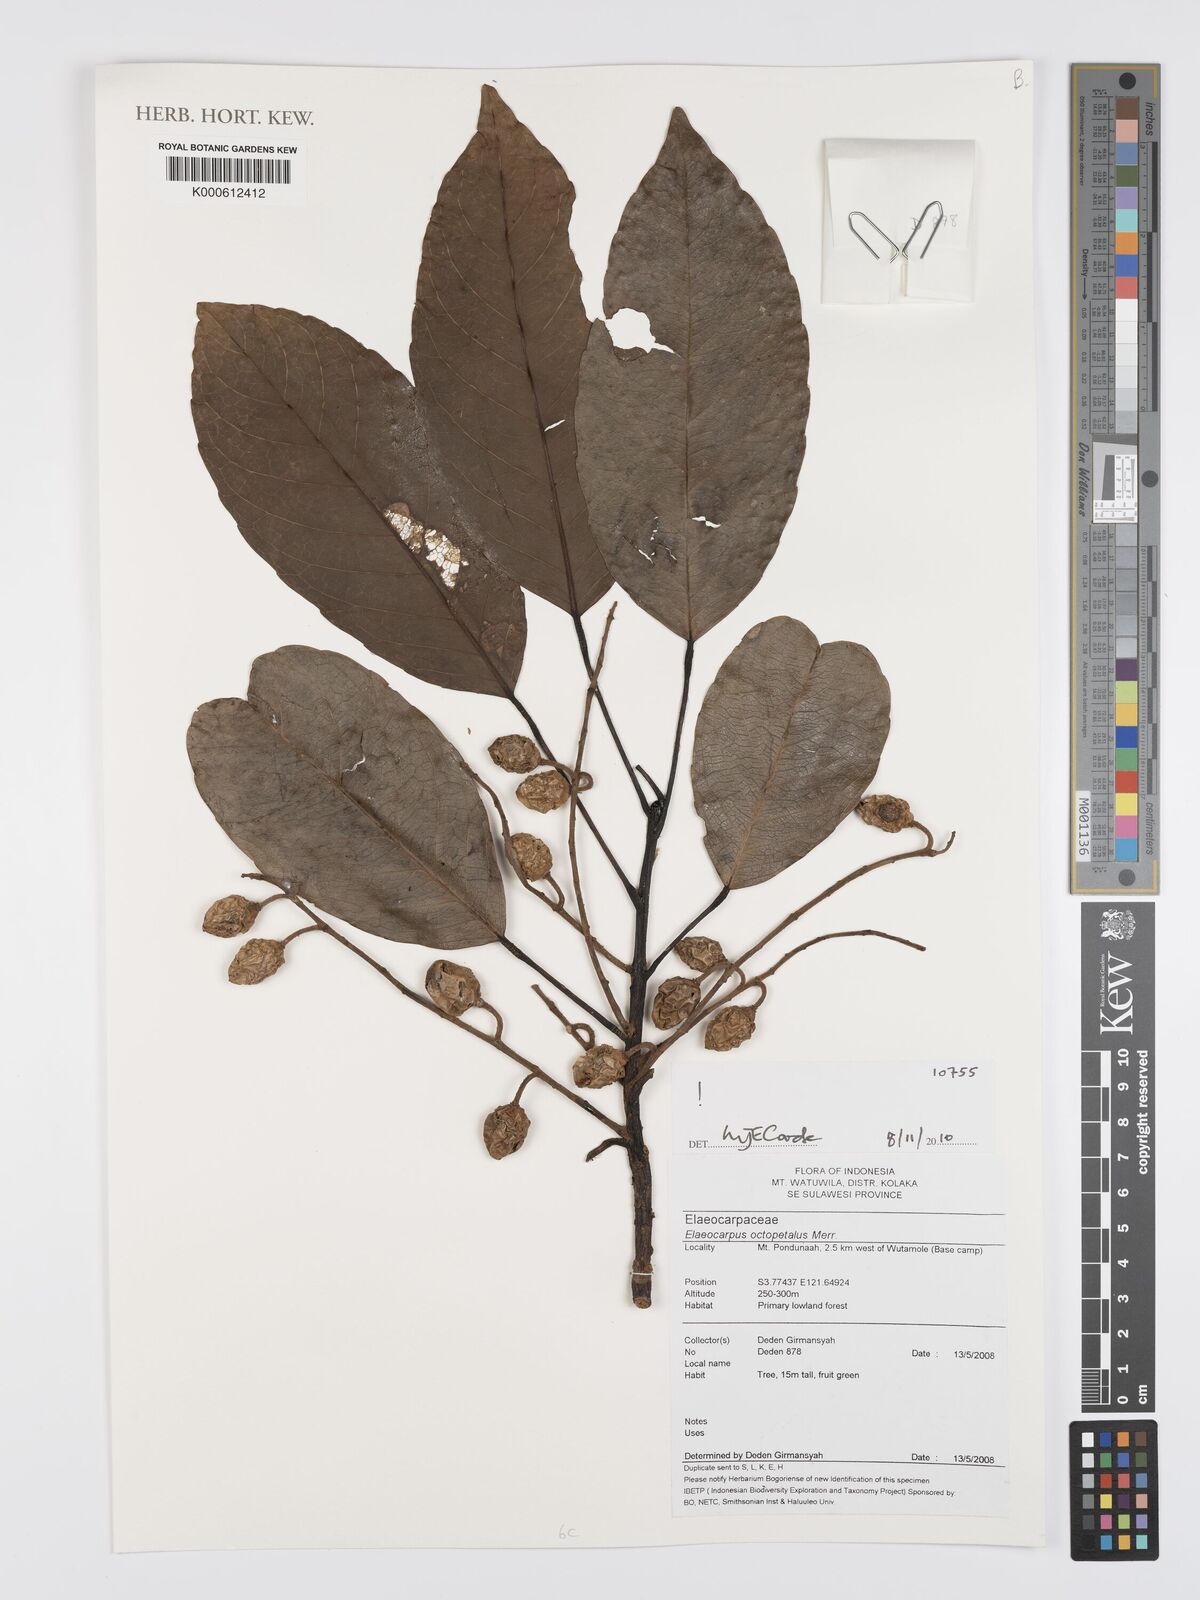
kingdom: Plantae
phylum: Tracheophyta
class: Magnoliopsida
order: Oxalidales
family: Elaeocarpaceae
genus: Elaeocarpus
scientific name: Elaeocarpus octopetalus
